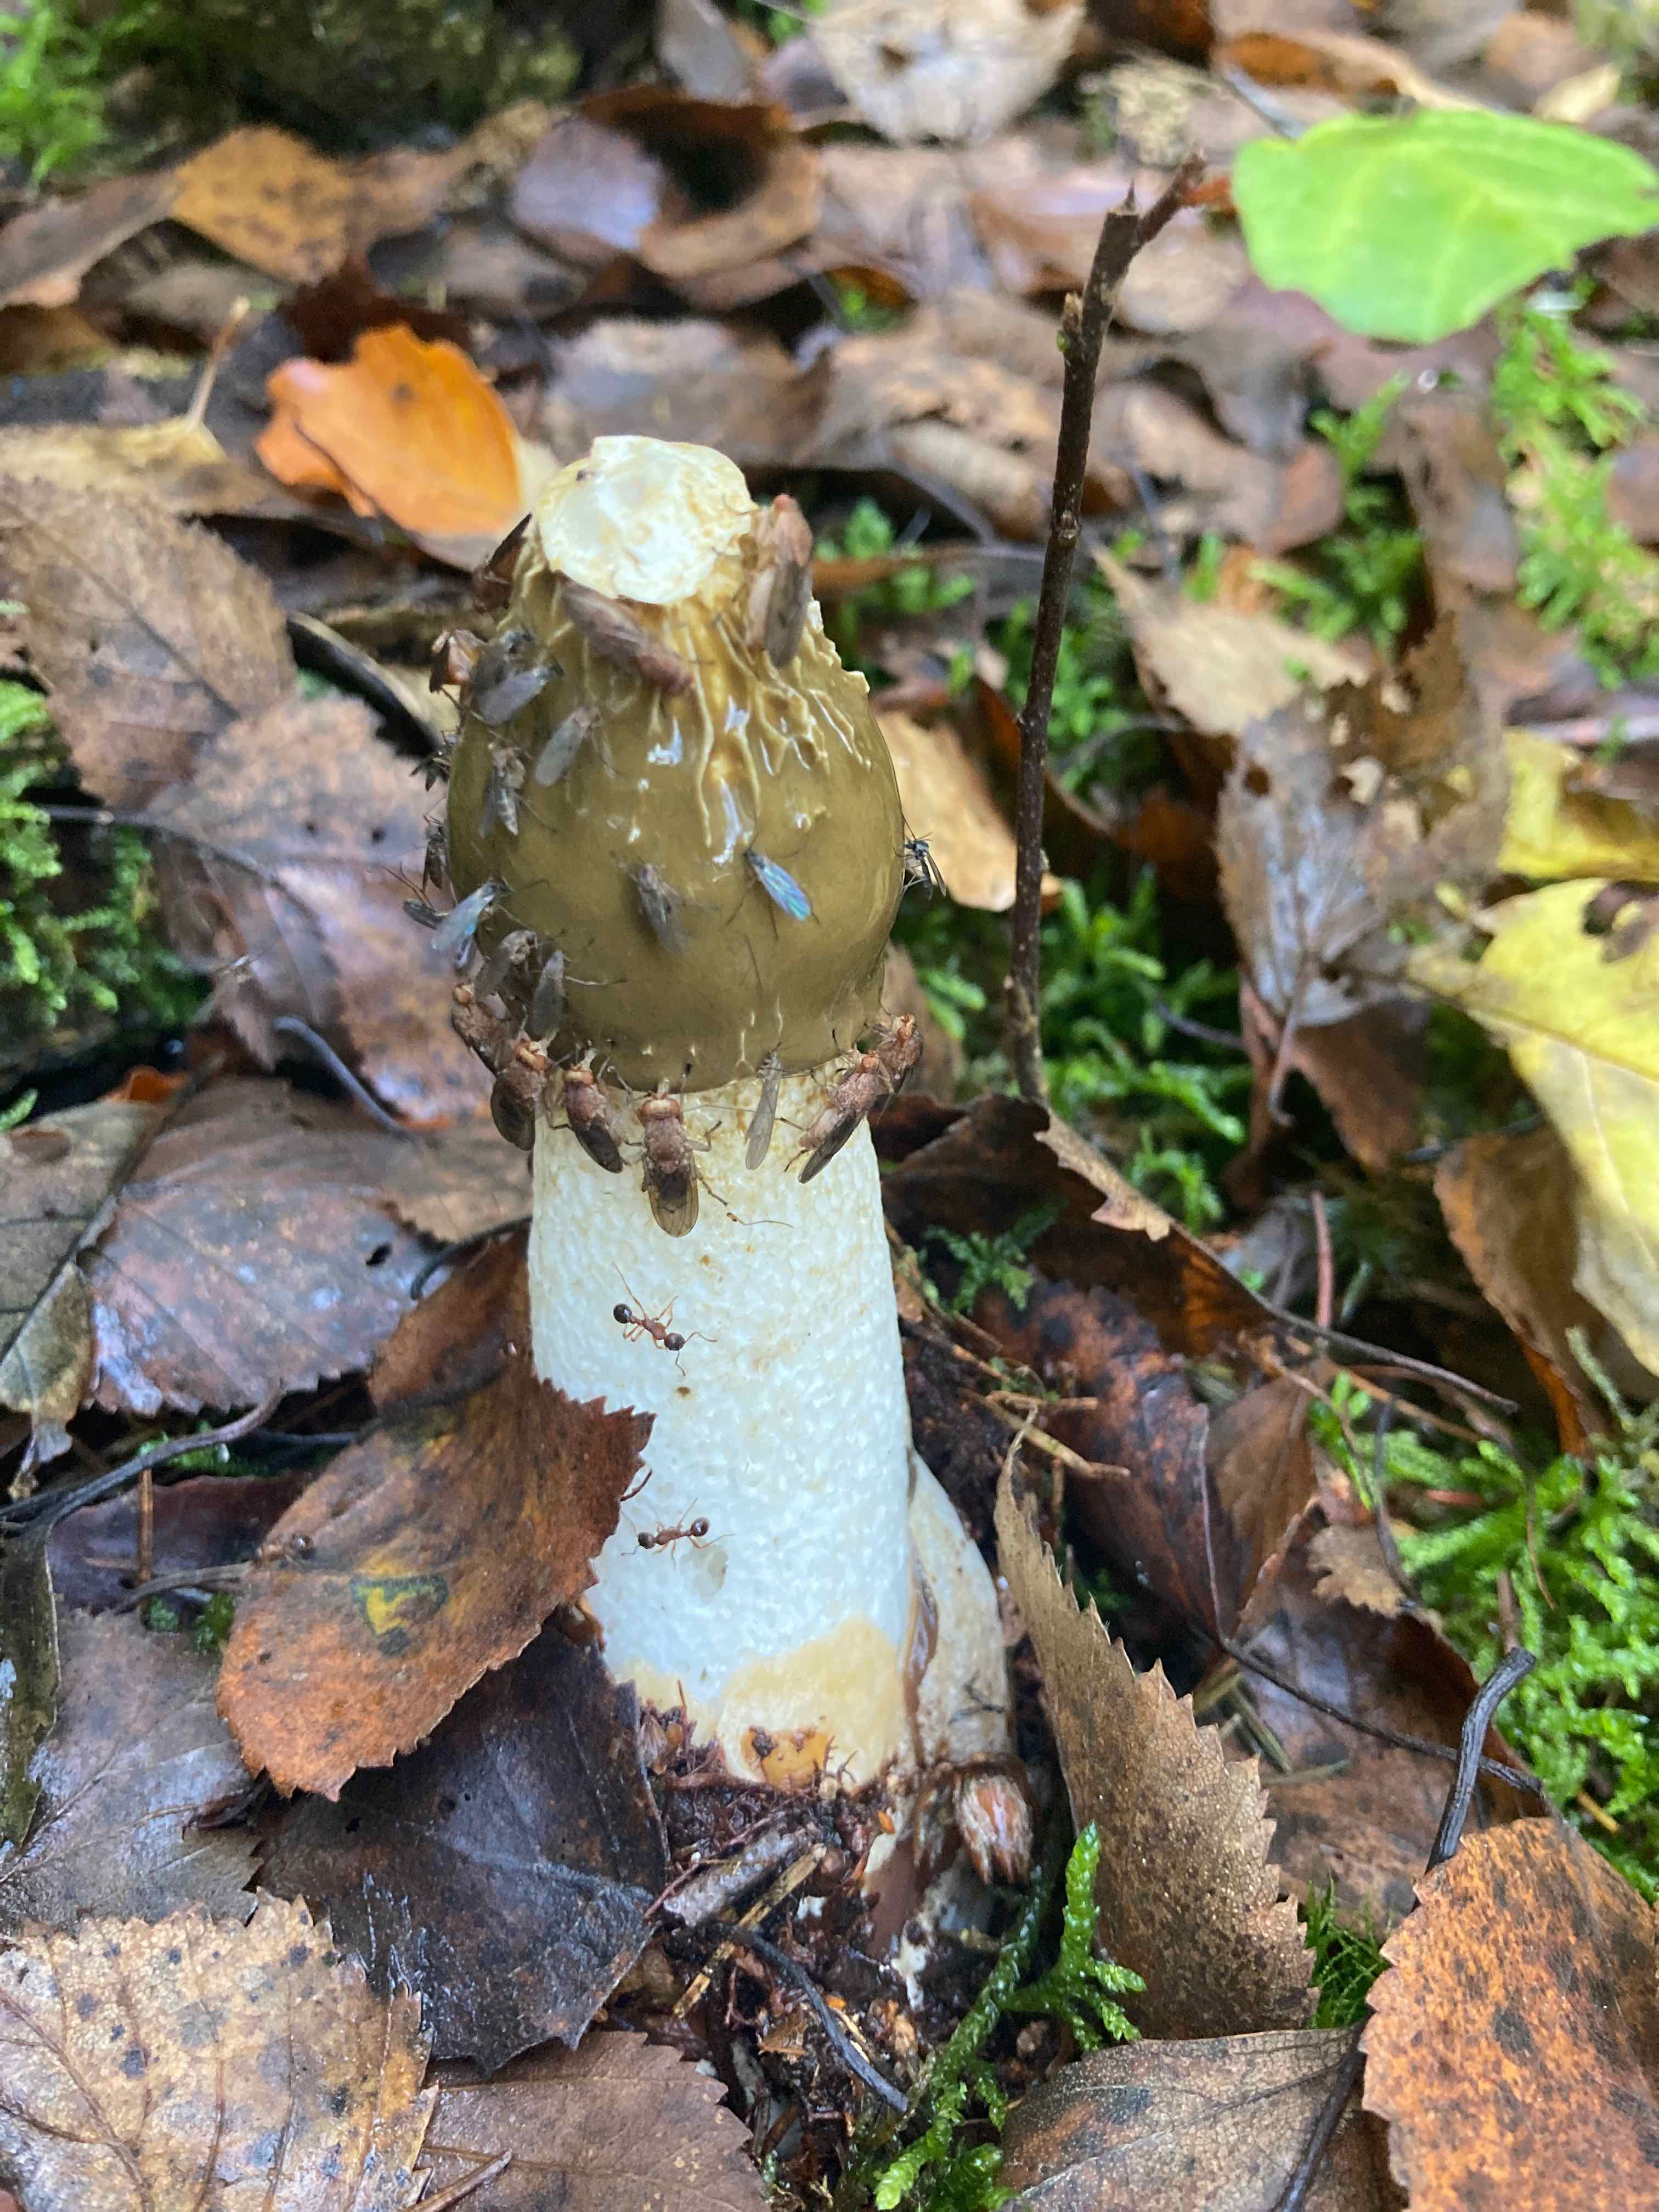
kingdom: Fungi
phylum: Basidiomycota
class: Agaricomycetes
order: Phallales
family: Phallaceae
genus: Phallus
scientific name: Phallus impudicus
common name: almindelig stinksvamp
